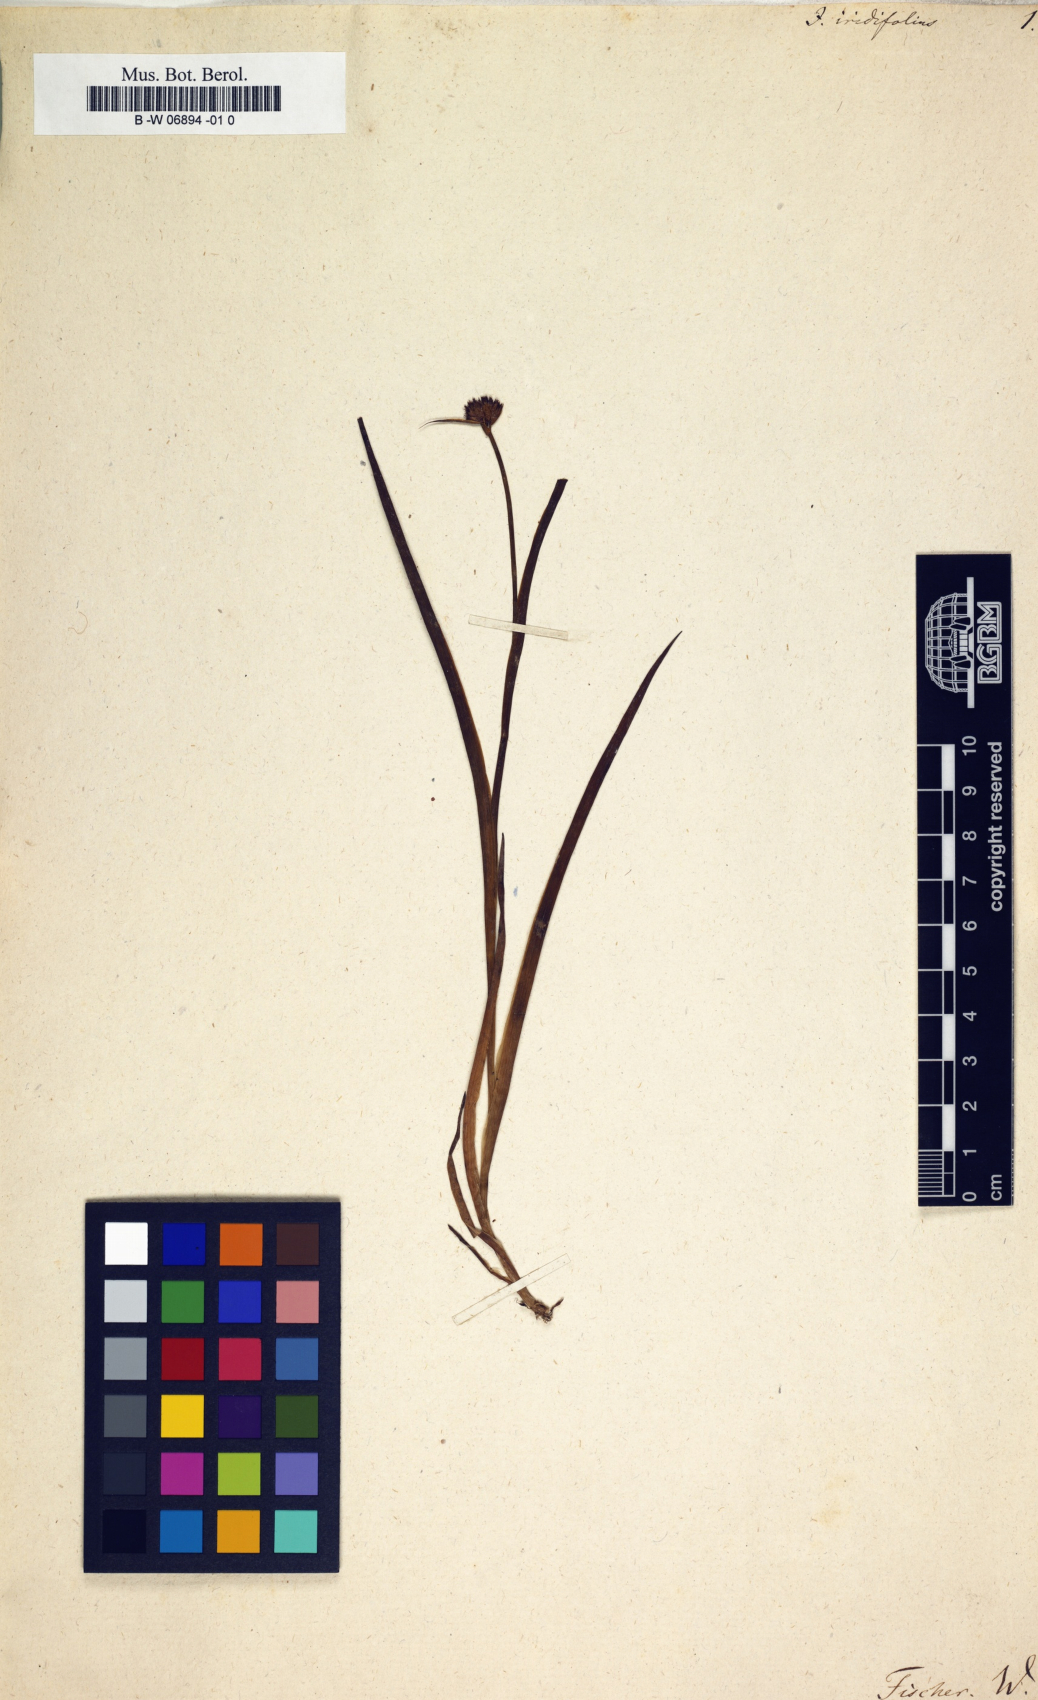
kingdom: Plantae
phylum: Tracheophyta
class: Liliopsida
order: Poales
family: Juncaceae
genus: Juncus
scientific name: Juncus iridifolius
